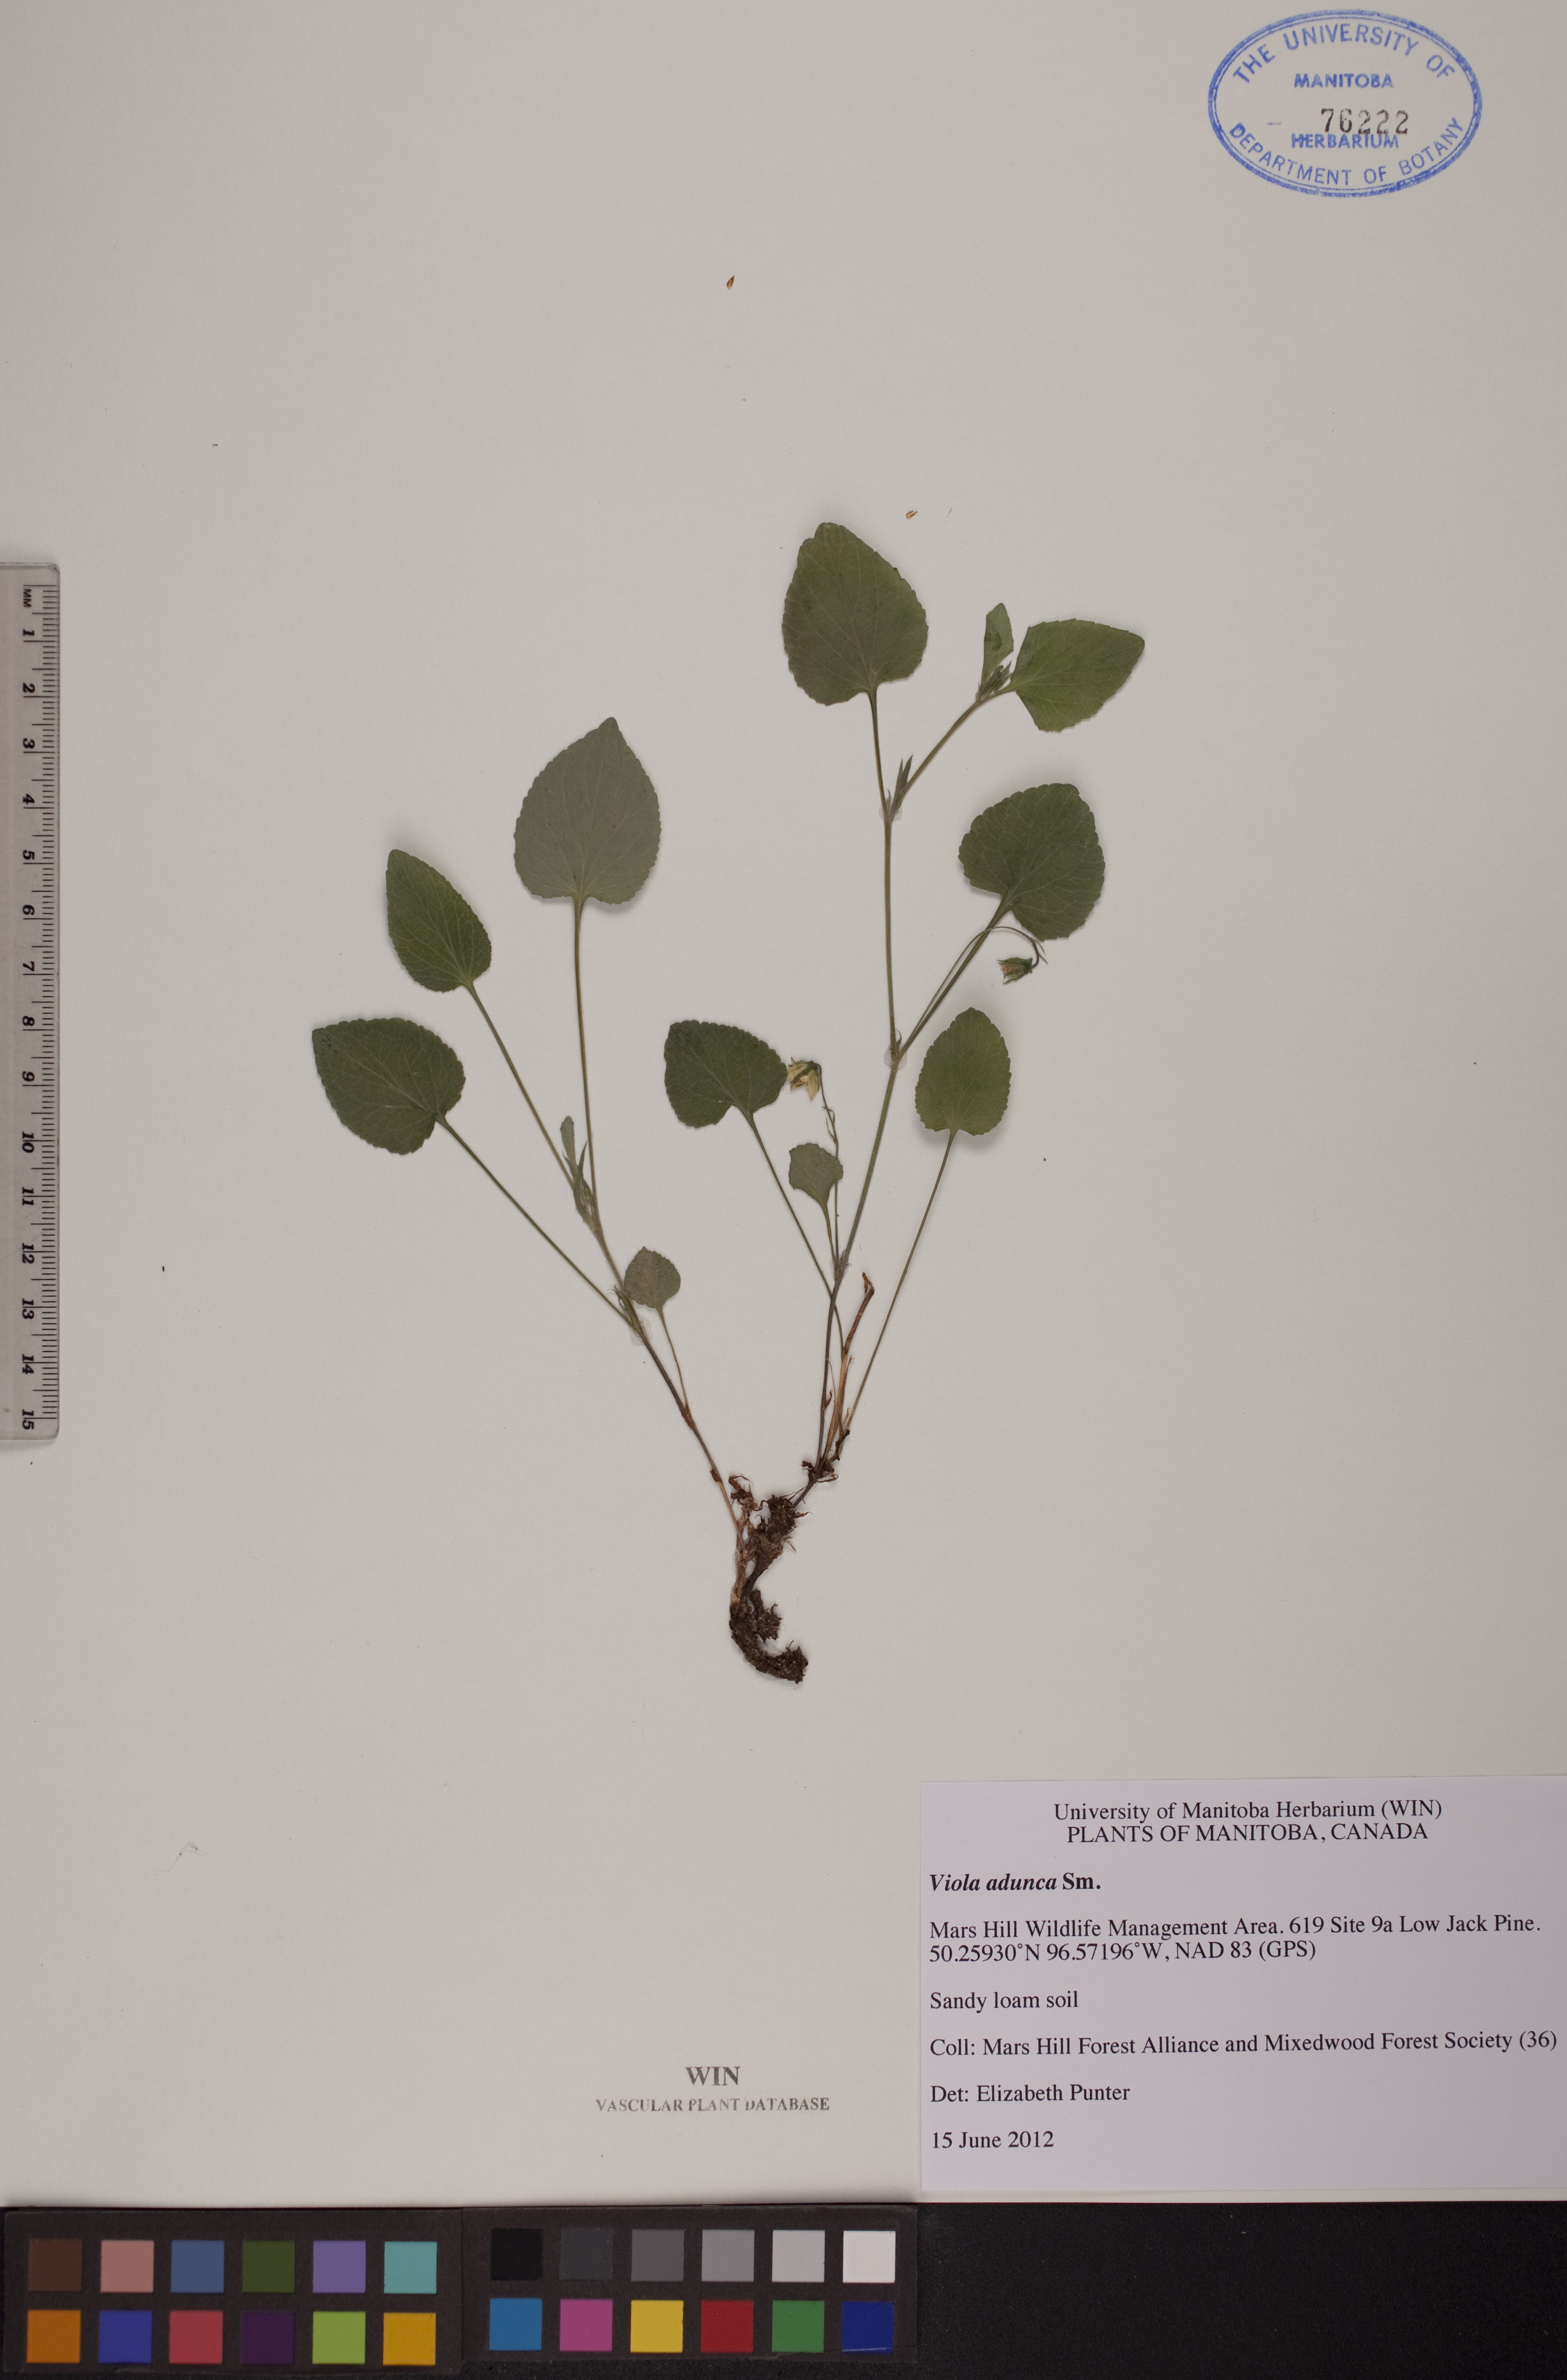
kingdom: Plantae
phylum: Tracheophyta
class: Magnoliopsida
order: Malpighiales
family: Violaceae
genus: Viola
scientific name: Viola adunca
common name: Sand violet
